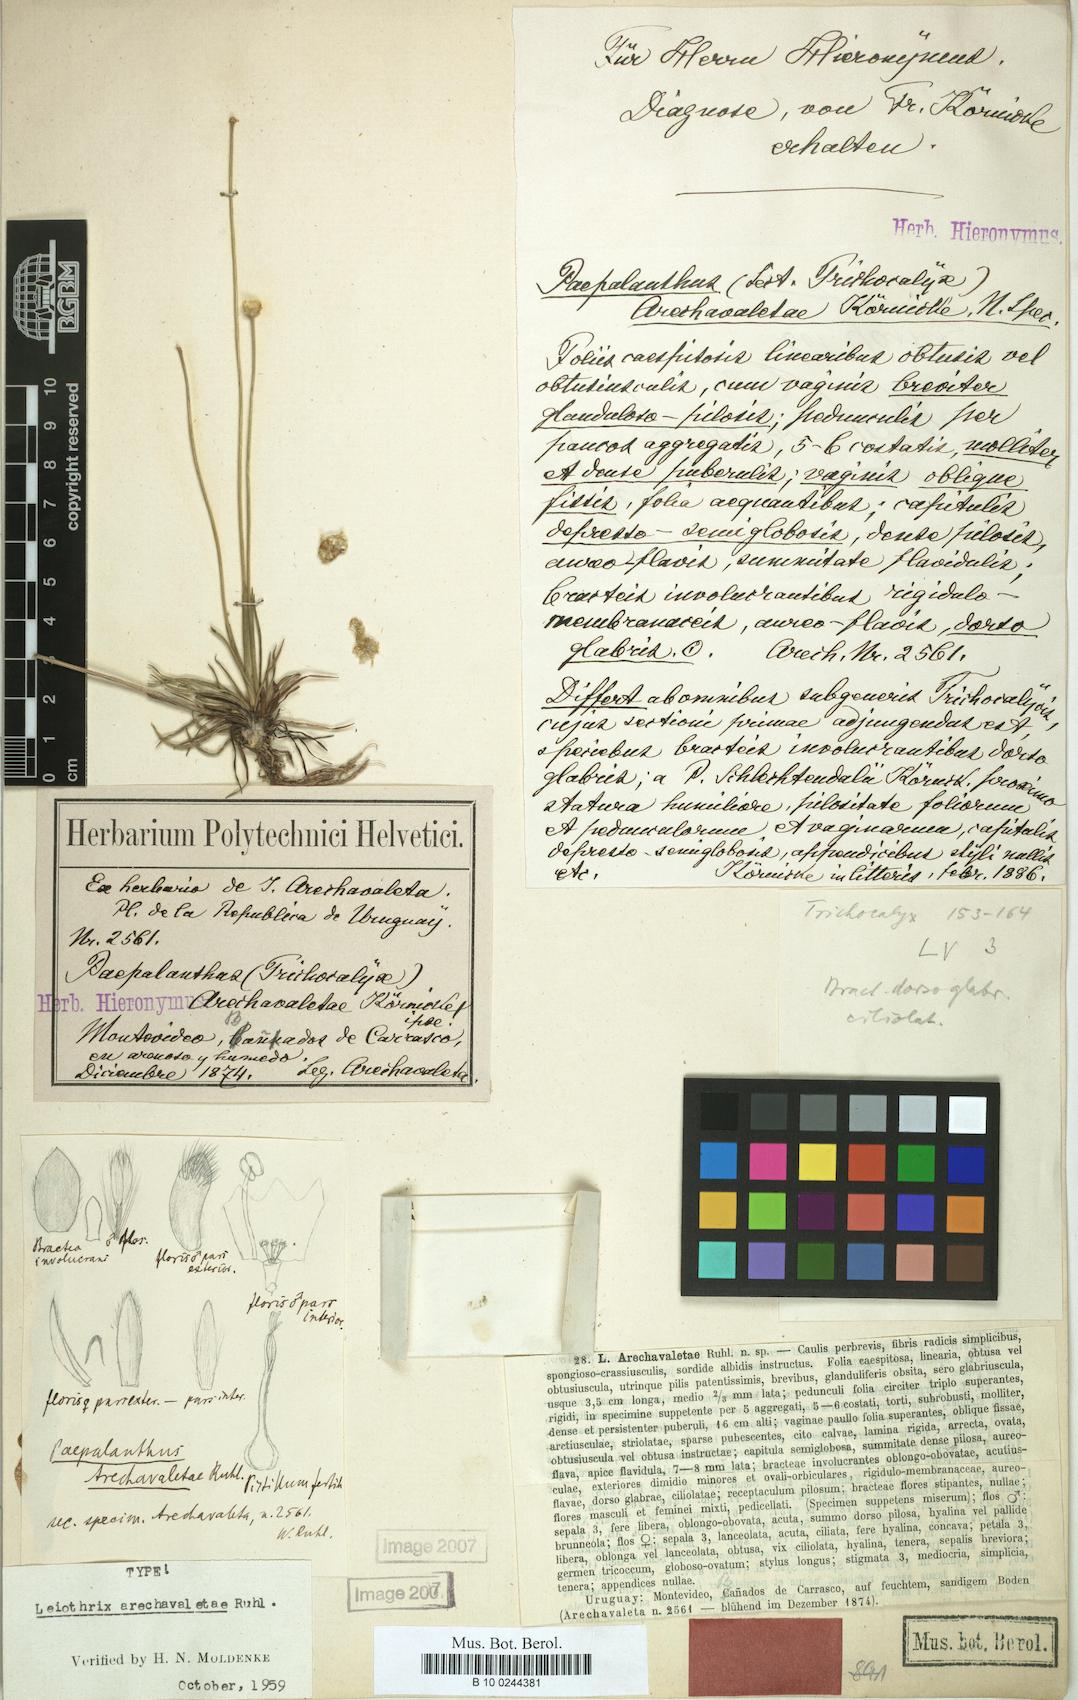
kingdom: Plantae
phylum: Tracheophyta
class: Liliopsida
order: Poales
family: Eriocaulaceae
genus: Syngonanthus
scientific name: Syngonanthus chrysanthus
